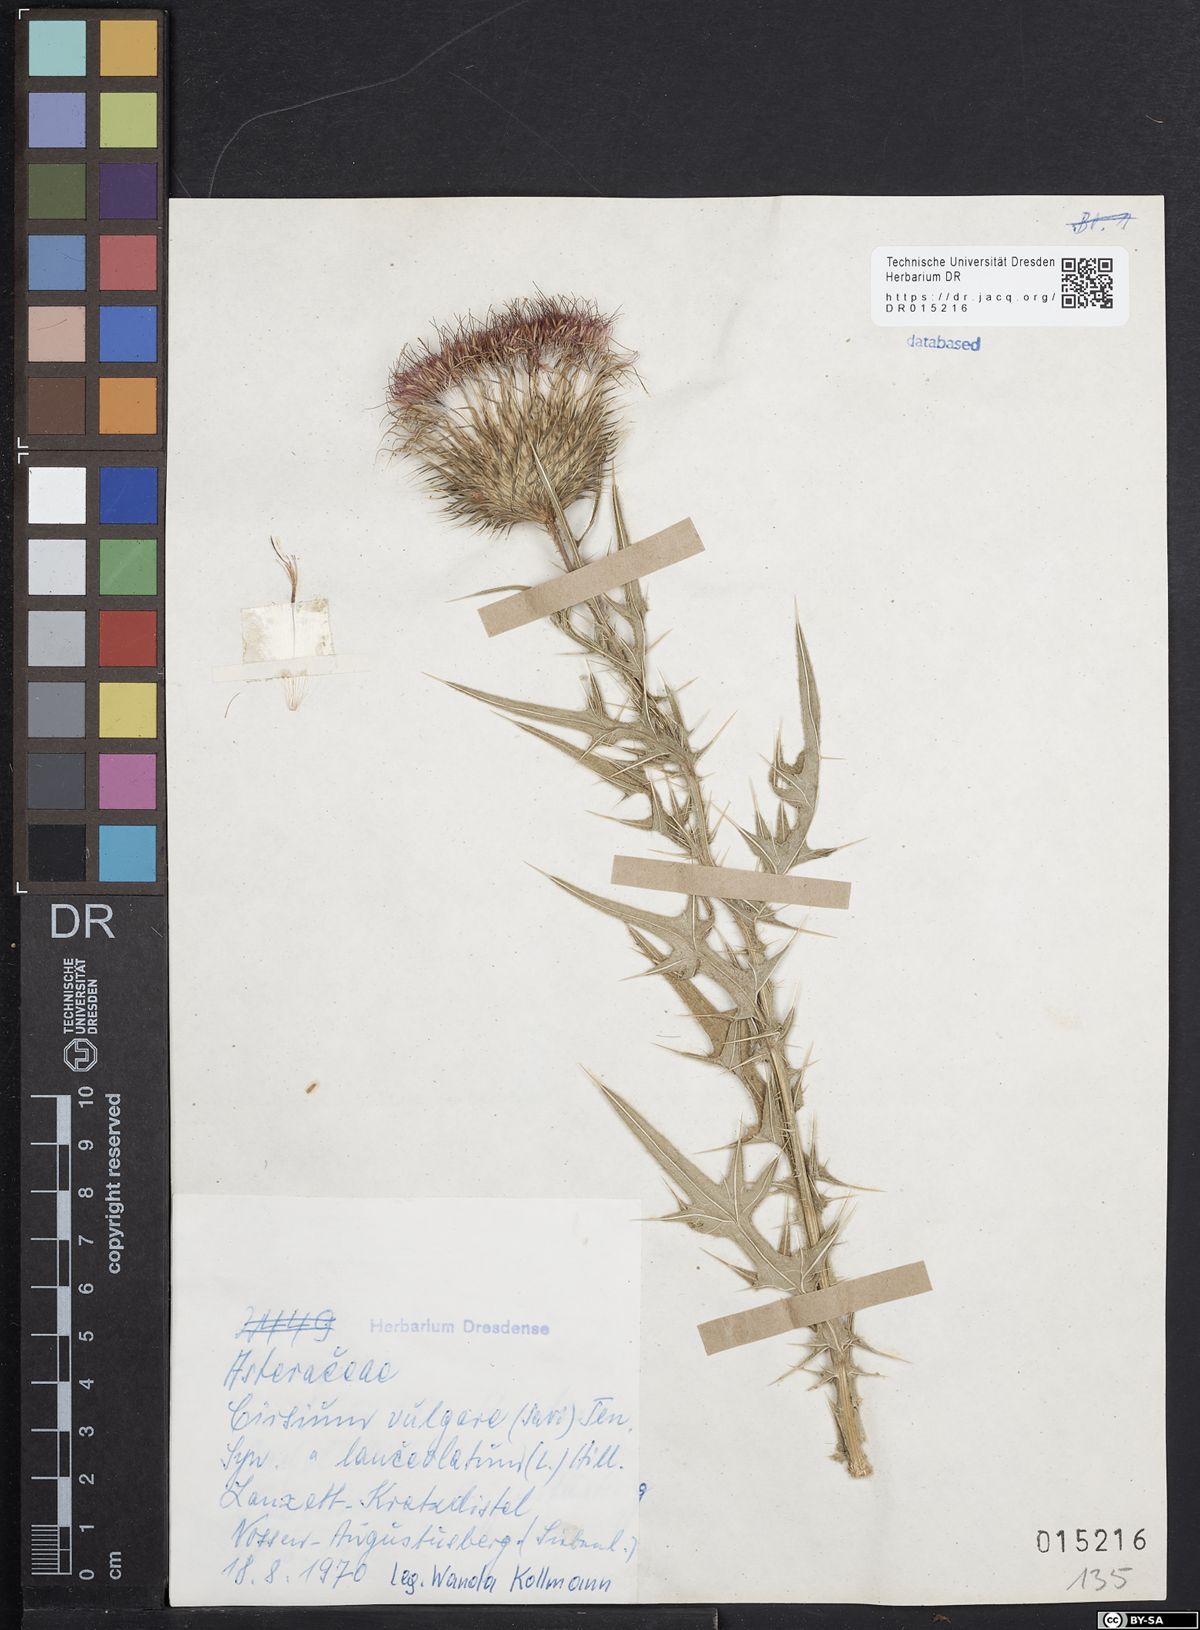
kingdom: Plantae
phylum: Tracheophyta
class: Magnoliopsida
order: Asterales
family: Asteraceae
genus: Cirsium
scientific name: Cirsium vulgare
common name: Bull thistle
